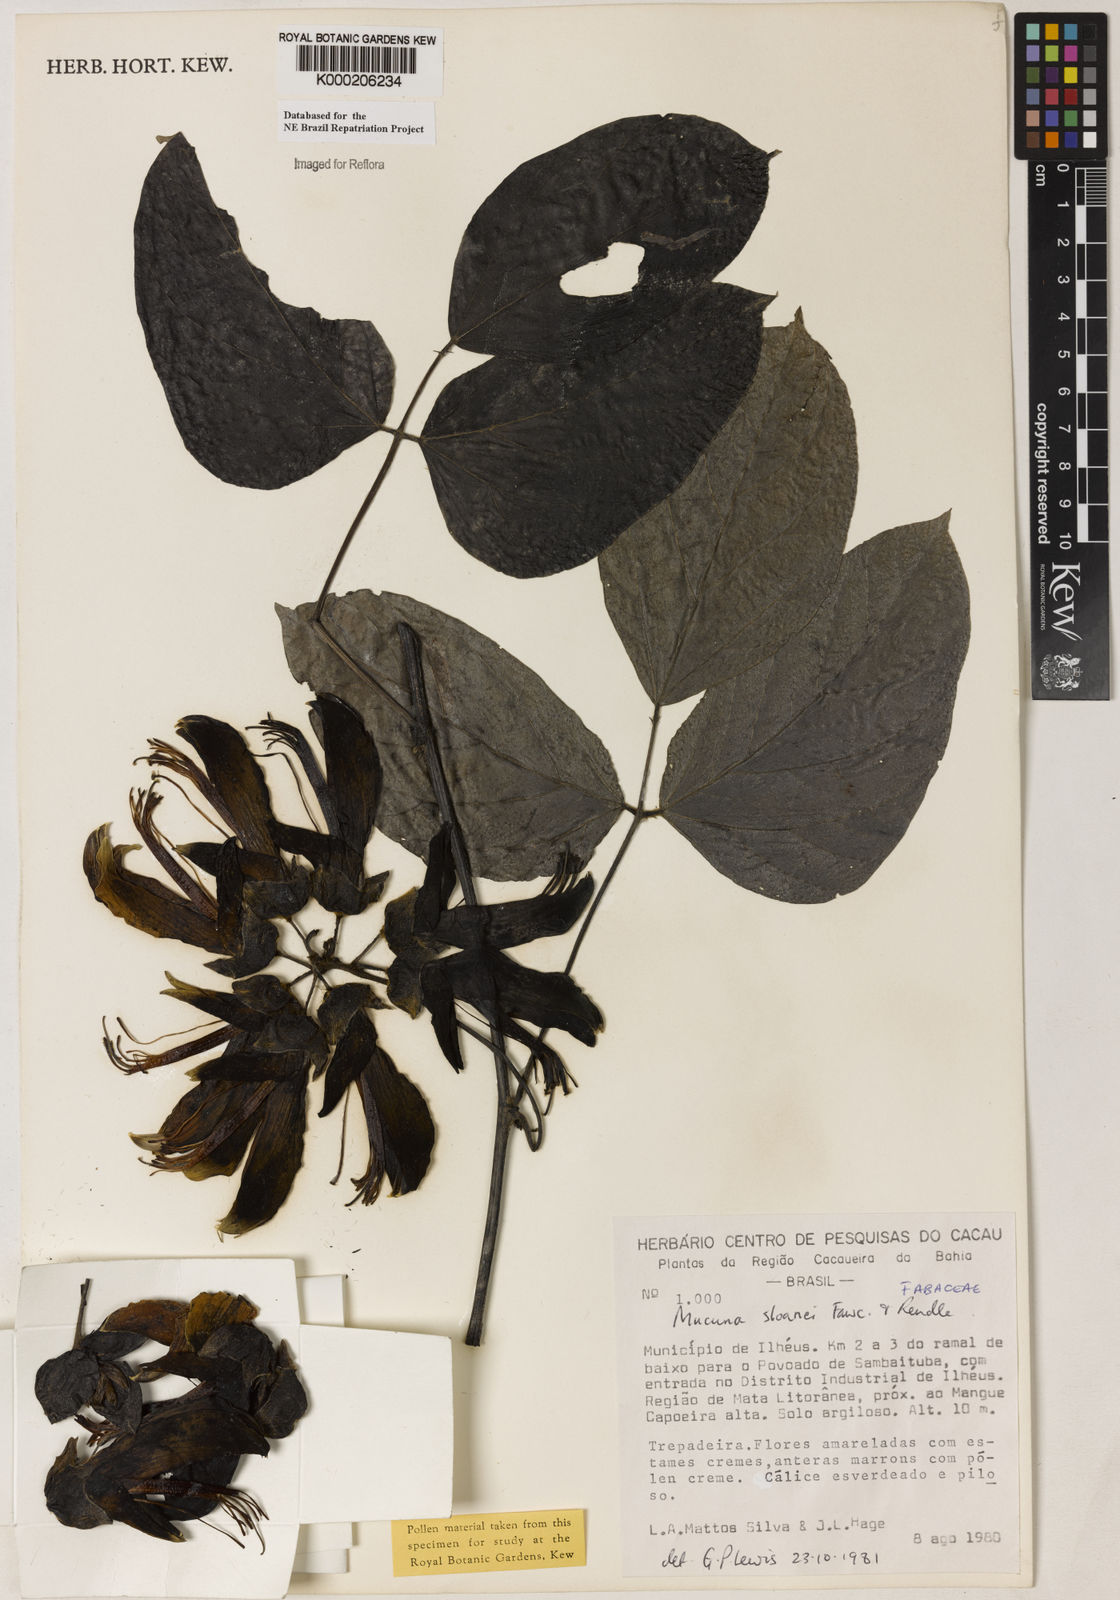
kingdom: Plantae
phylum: Tracheophyta
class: Magnoliopsida
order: Fabales
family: Fabaceae
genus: Mucuna
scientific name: Mucuna sloanei
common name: Horse-eye bean
